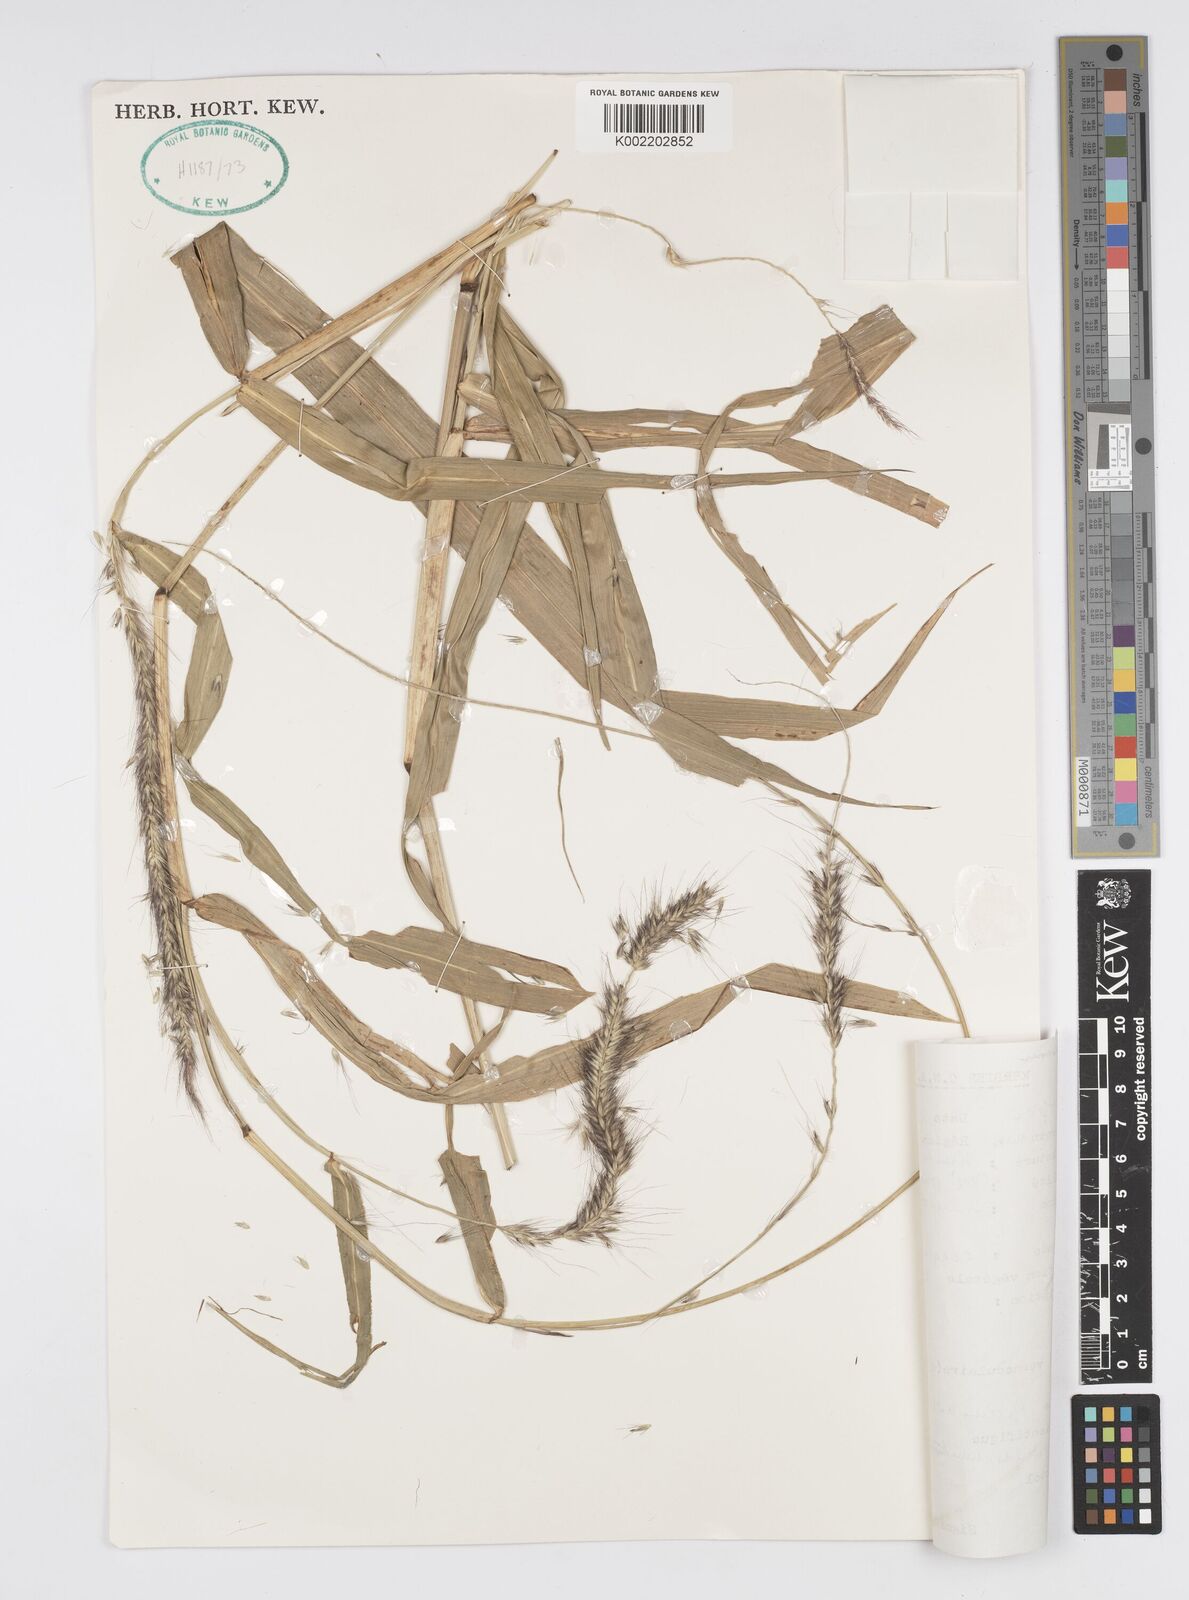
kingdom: Plantae
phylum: Tracheophyta
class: Liliopsida
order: Poales
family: Poaceae
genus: Cenchrus
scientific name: Cenchrus trachyphyllus
